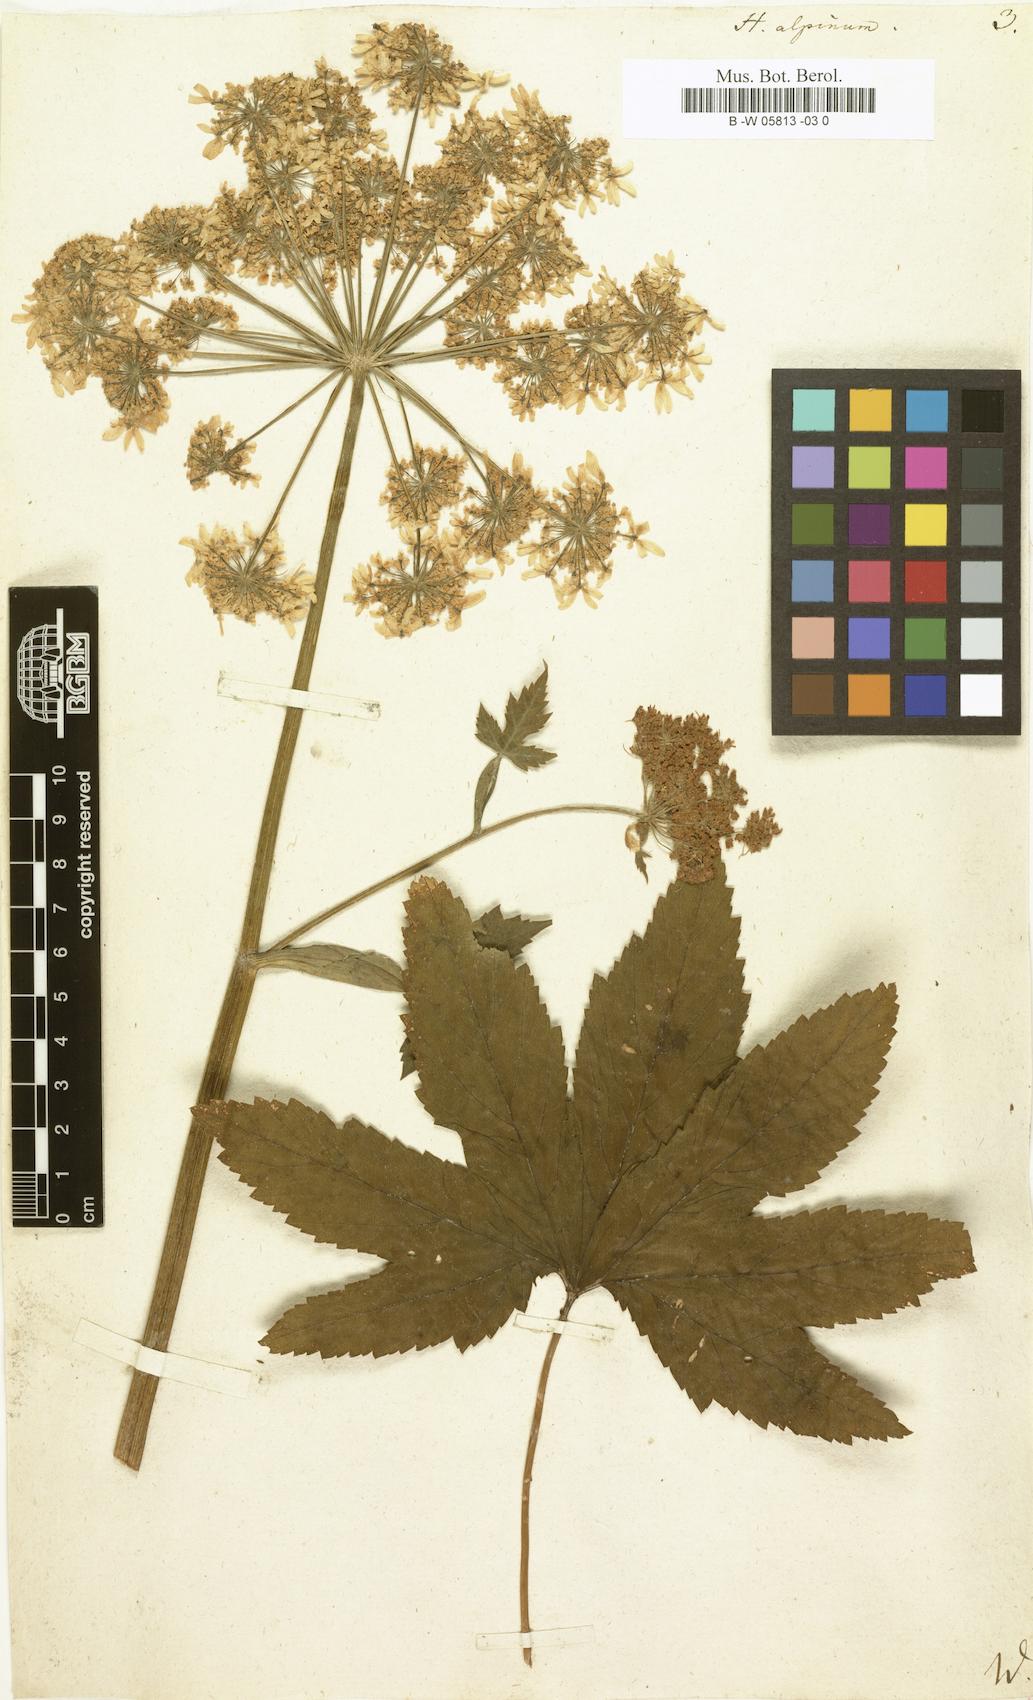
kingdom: Plantae
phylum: Tracheophyta
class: Magnoliopsida
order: Apiales
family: Apiaceae
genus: Heracleum
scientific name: Heracleum alpinum
